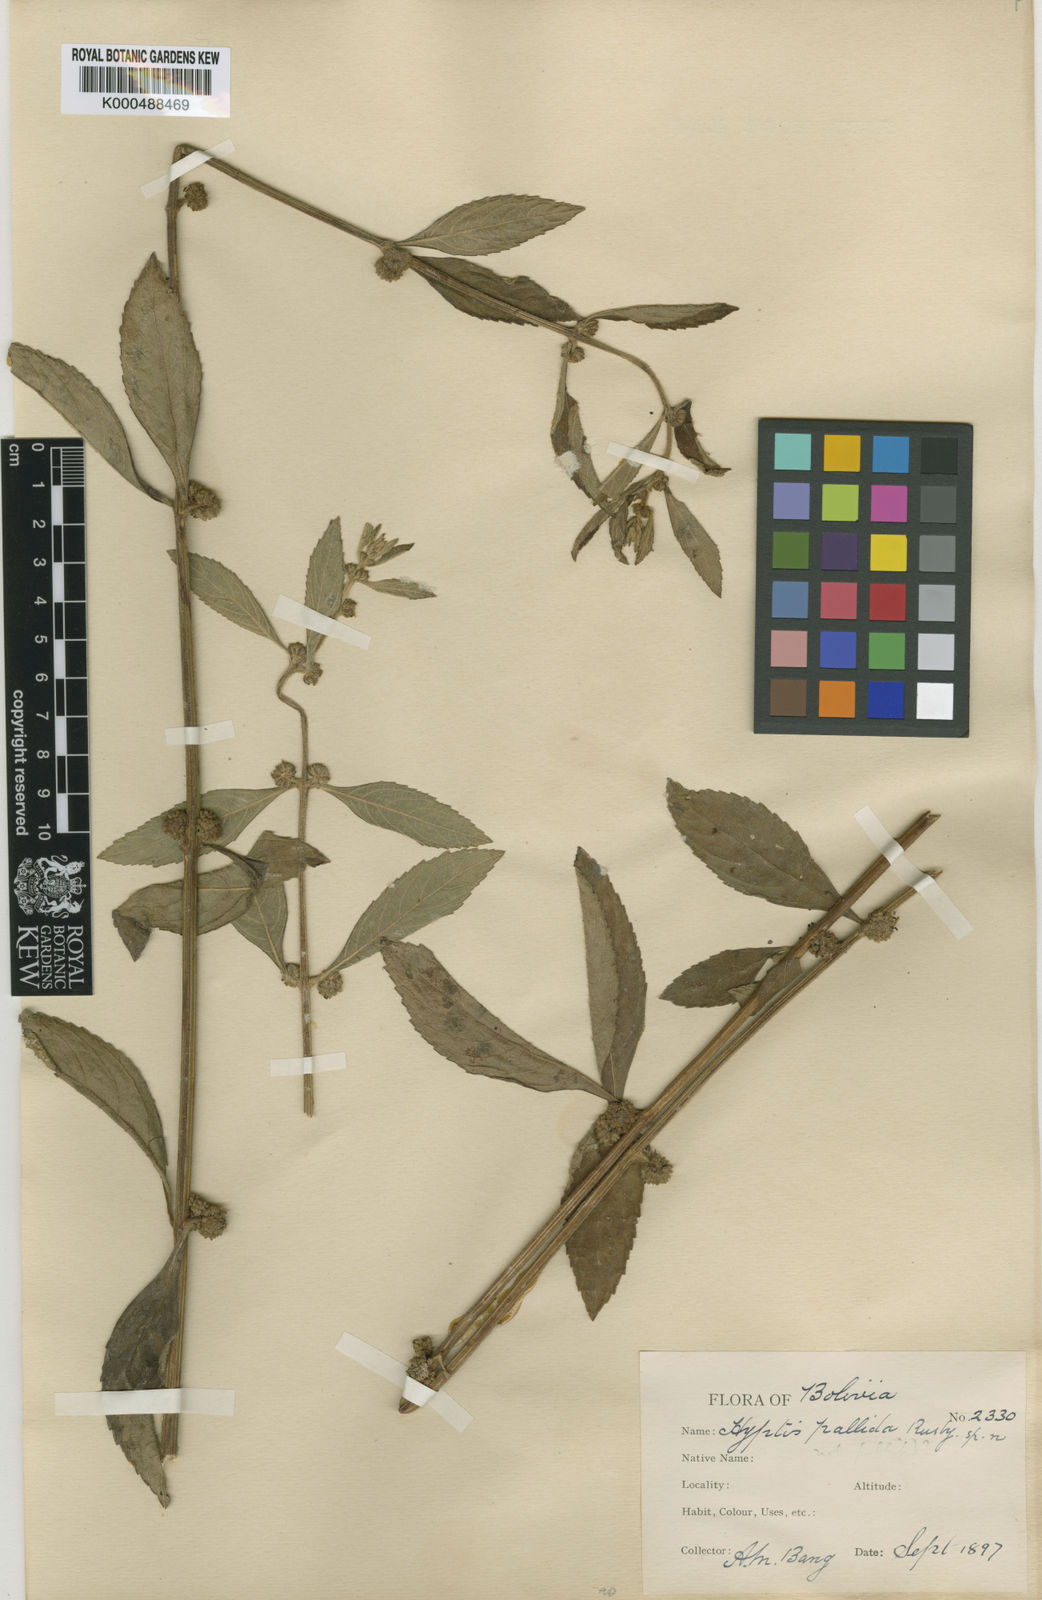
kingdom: Plantae
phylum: Tracheophyta
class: Magnoliopsida
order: Lamiales
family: Lamiaceae
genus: Hyptis
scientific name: Hyptis
